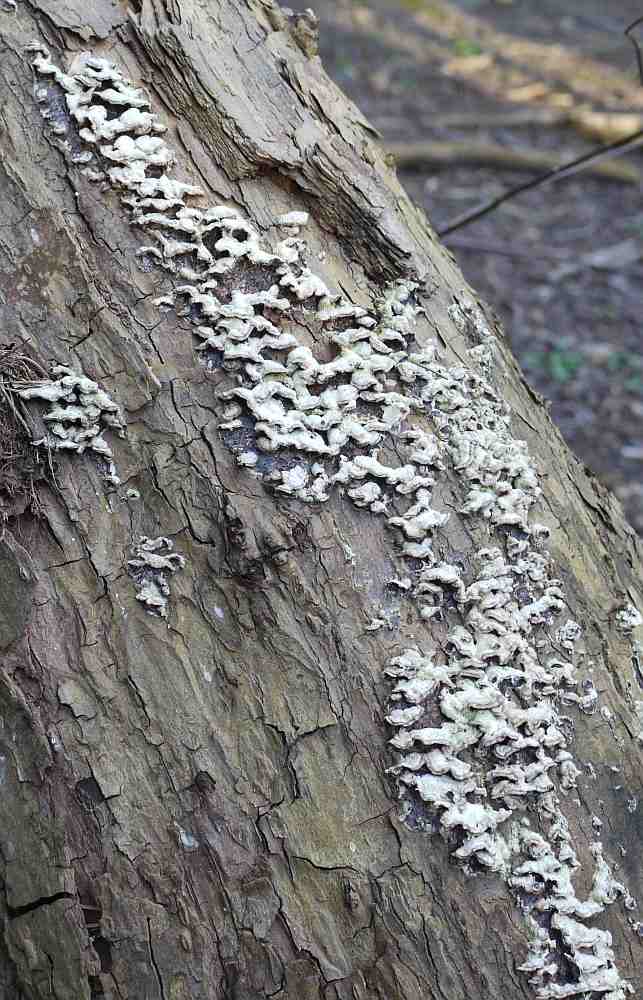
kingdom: Fungi
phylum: Basidiomycota
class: Agaricomycetes
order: Agaricales
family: Cyphellaceae
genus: Chondrostereum
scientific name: Chondrostereum purpureum
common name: purpurlædersvamp
